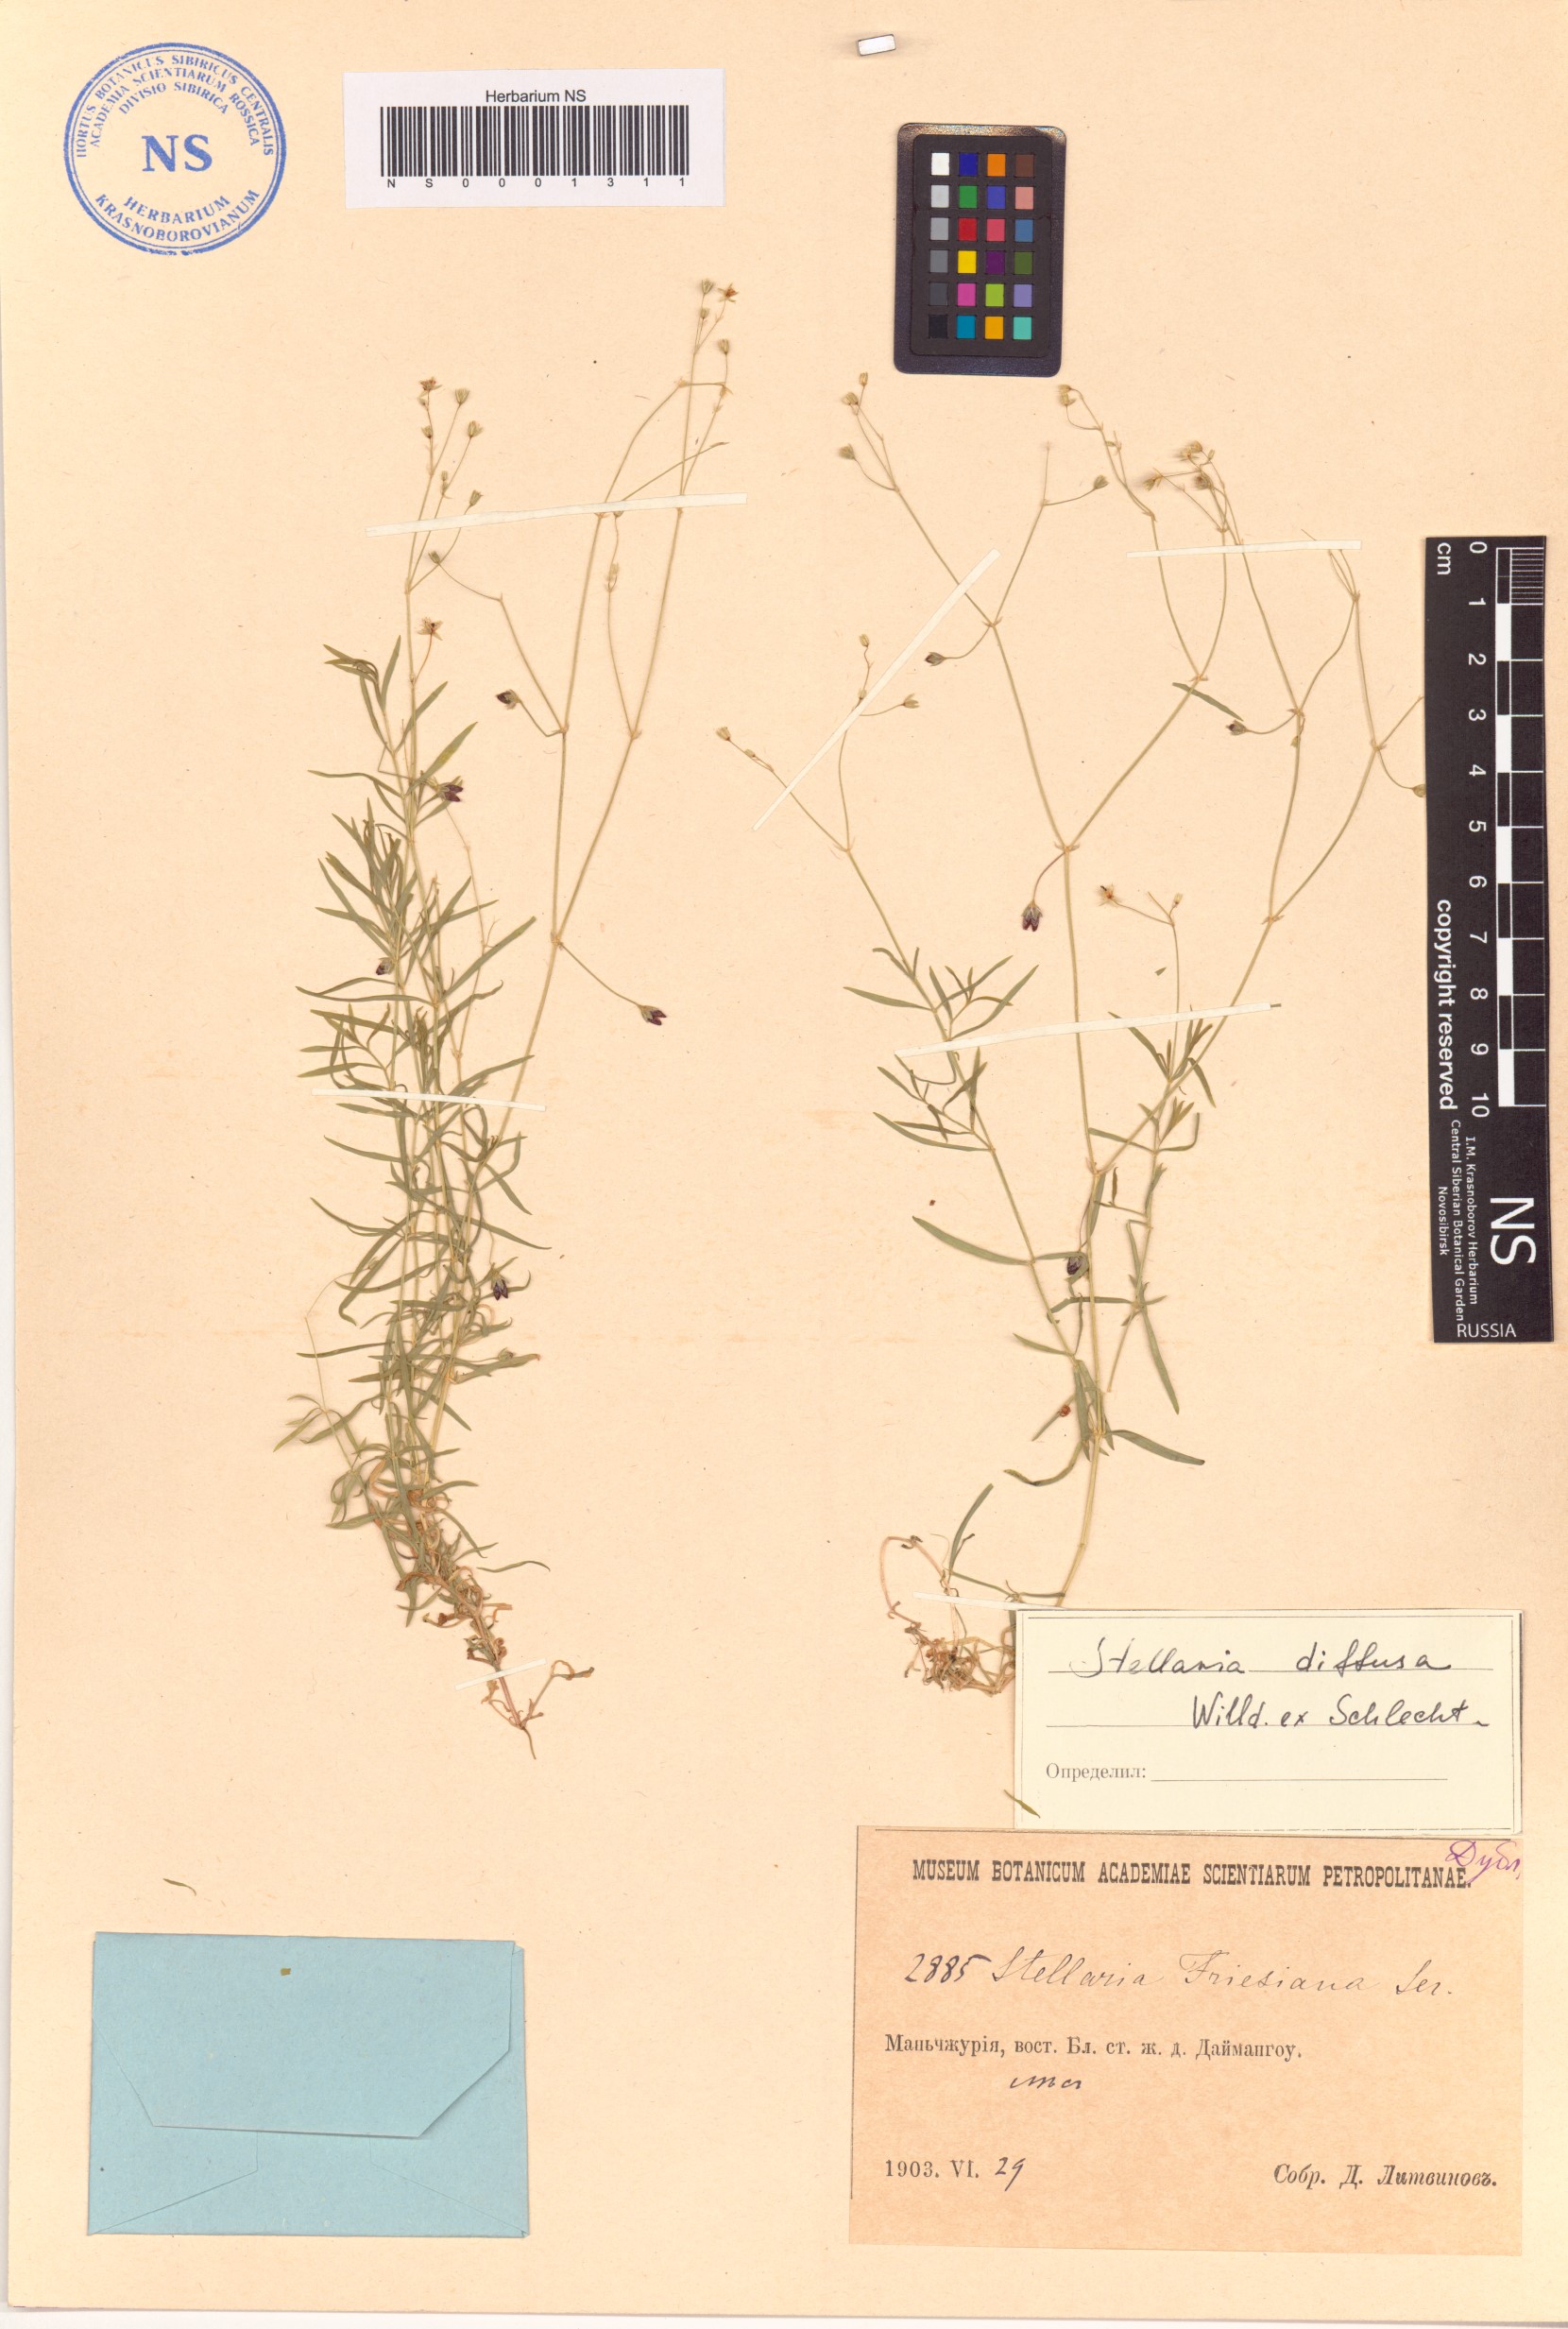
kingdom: Plantae
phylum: Tracheophyta
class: Magnoliopsida
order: Caryophyllales
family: Caryophyllaceae
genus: Stellaria
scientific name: Stellaria longifolia
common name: Long-leaved chickweed
